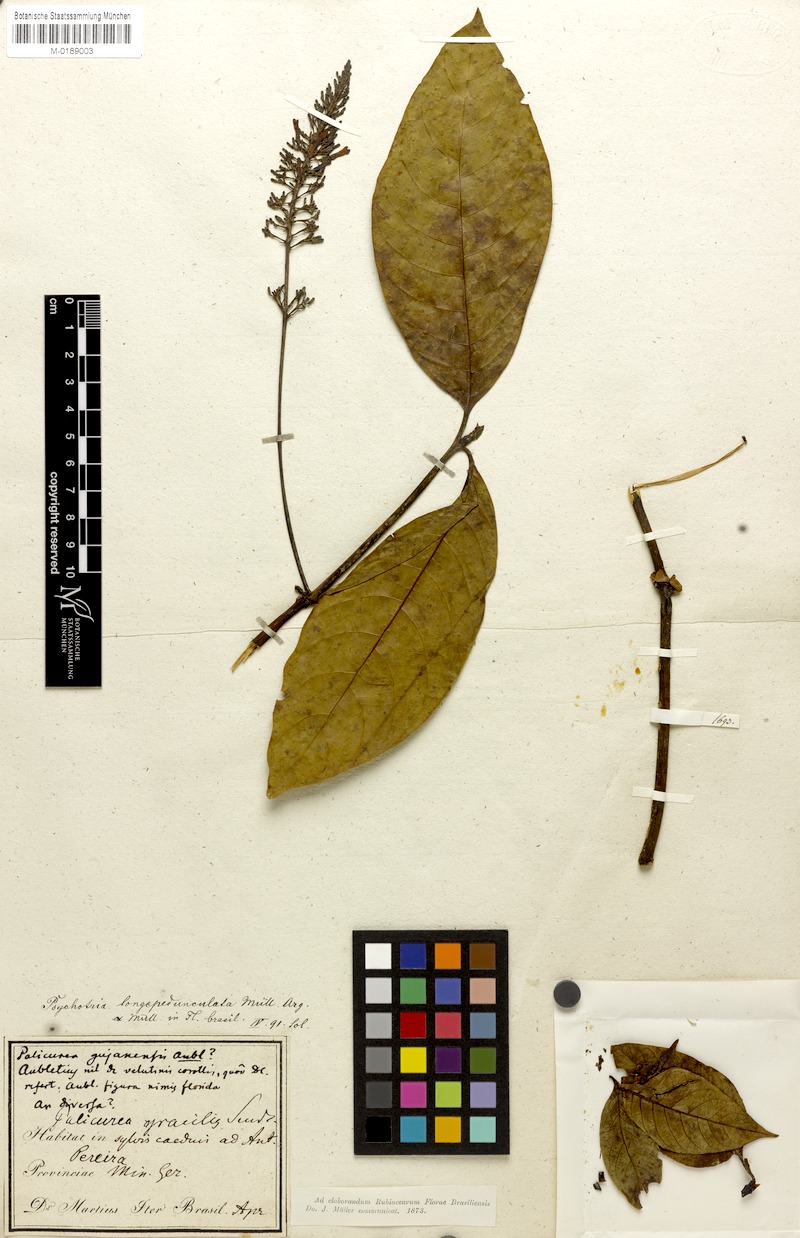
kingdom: Plantae
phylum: Tracheophyta
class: Magnoliopsida
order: Gentianales
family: Rubiaceae
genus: Palicourea
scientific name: Palicourea longipedunculata
